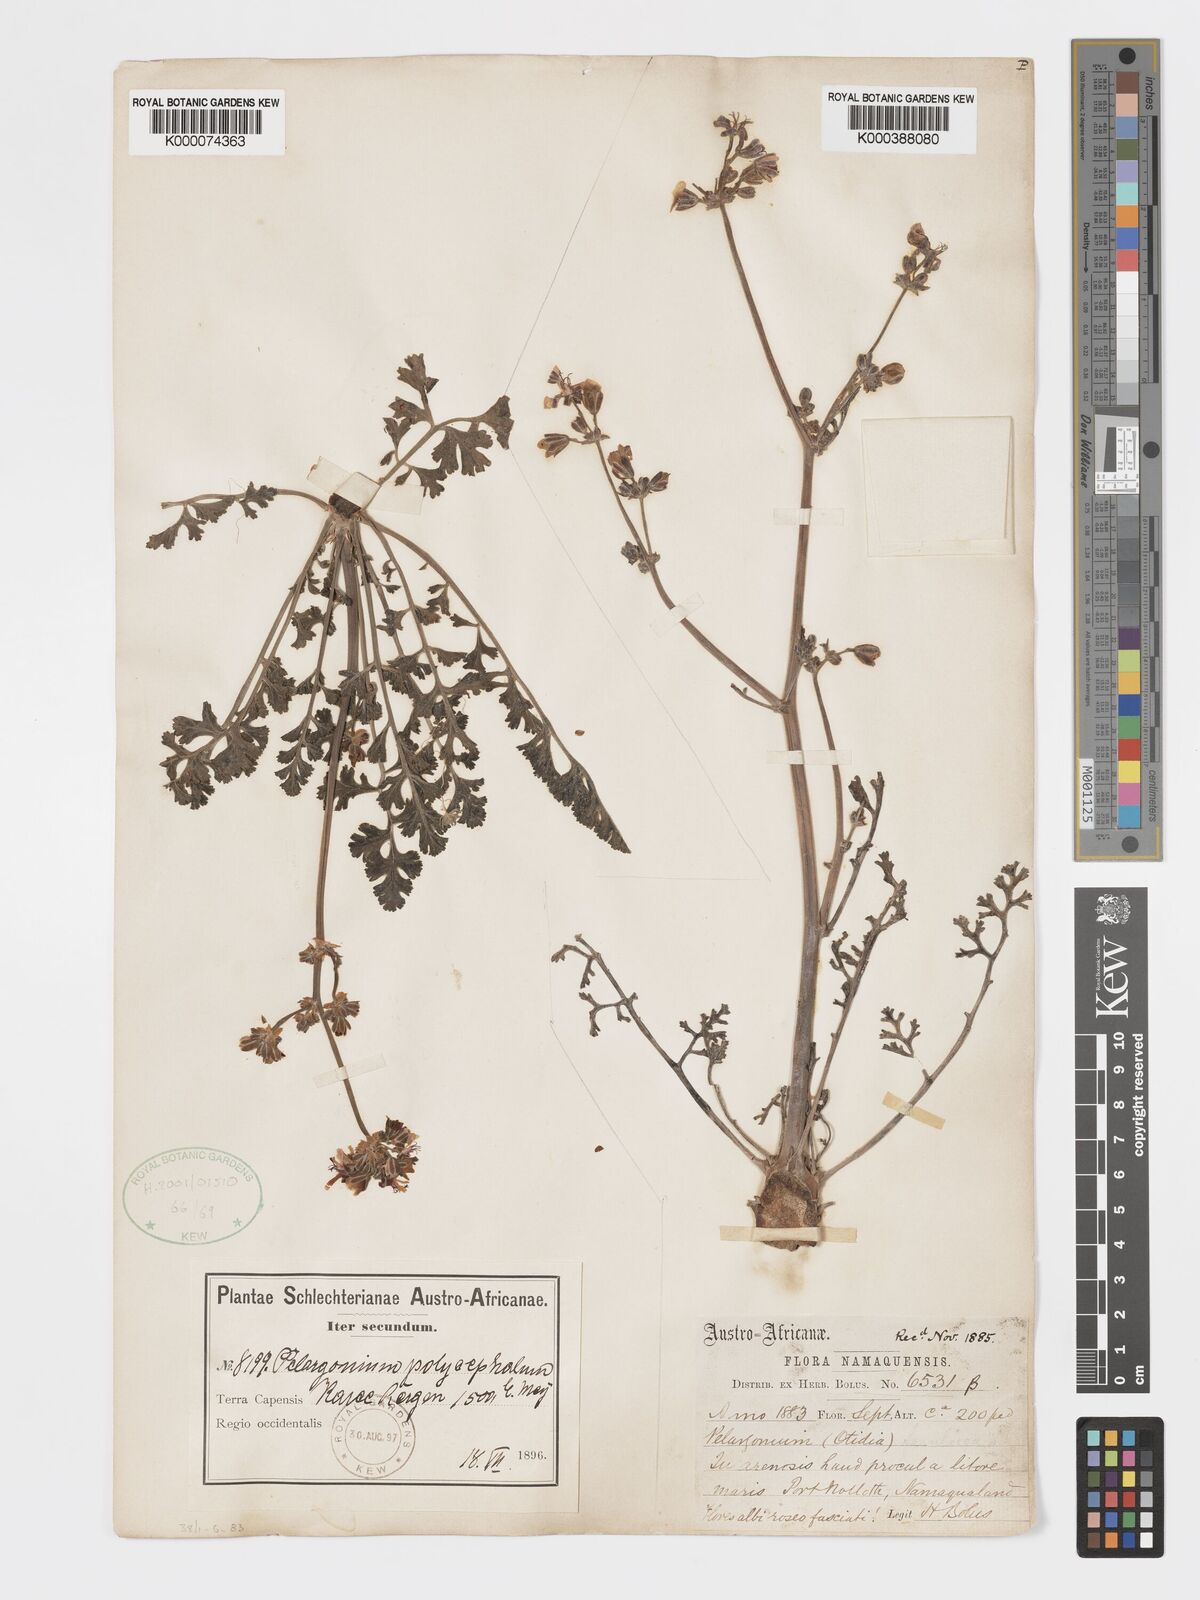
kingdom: Plantae
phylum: Tracheophyta
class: Magnoliopsida
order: Geraniales
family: Geraniaceae
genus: Pelargonium
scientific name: Pelargonium
